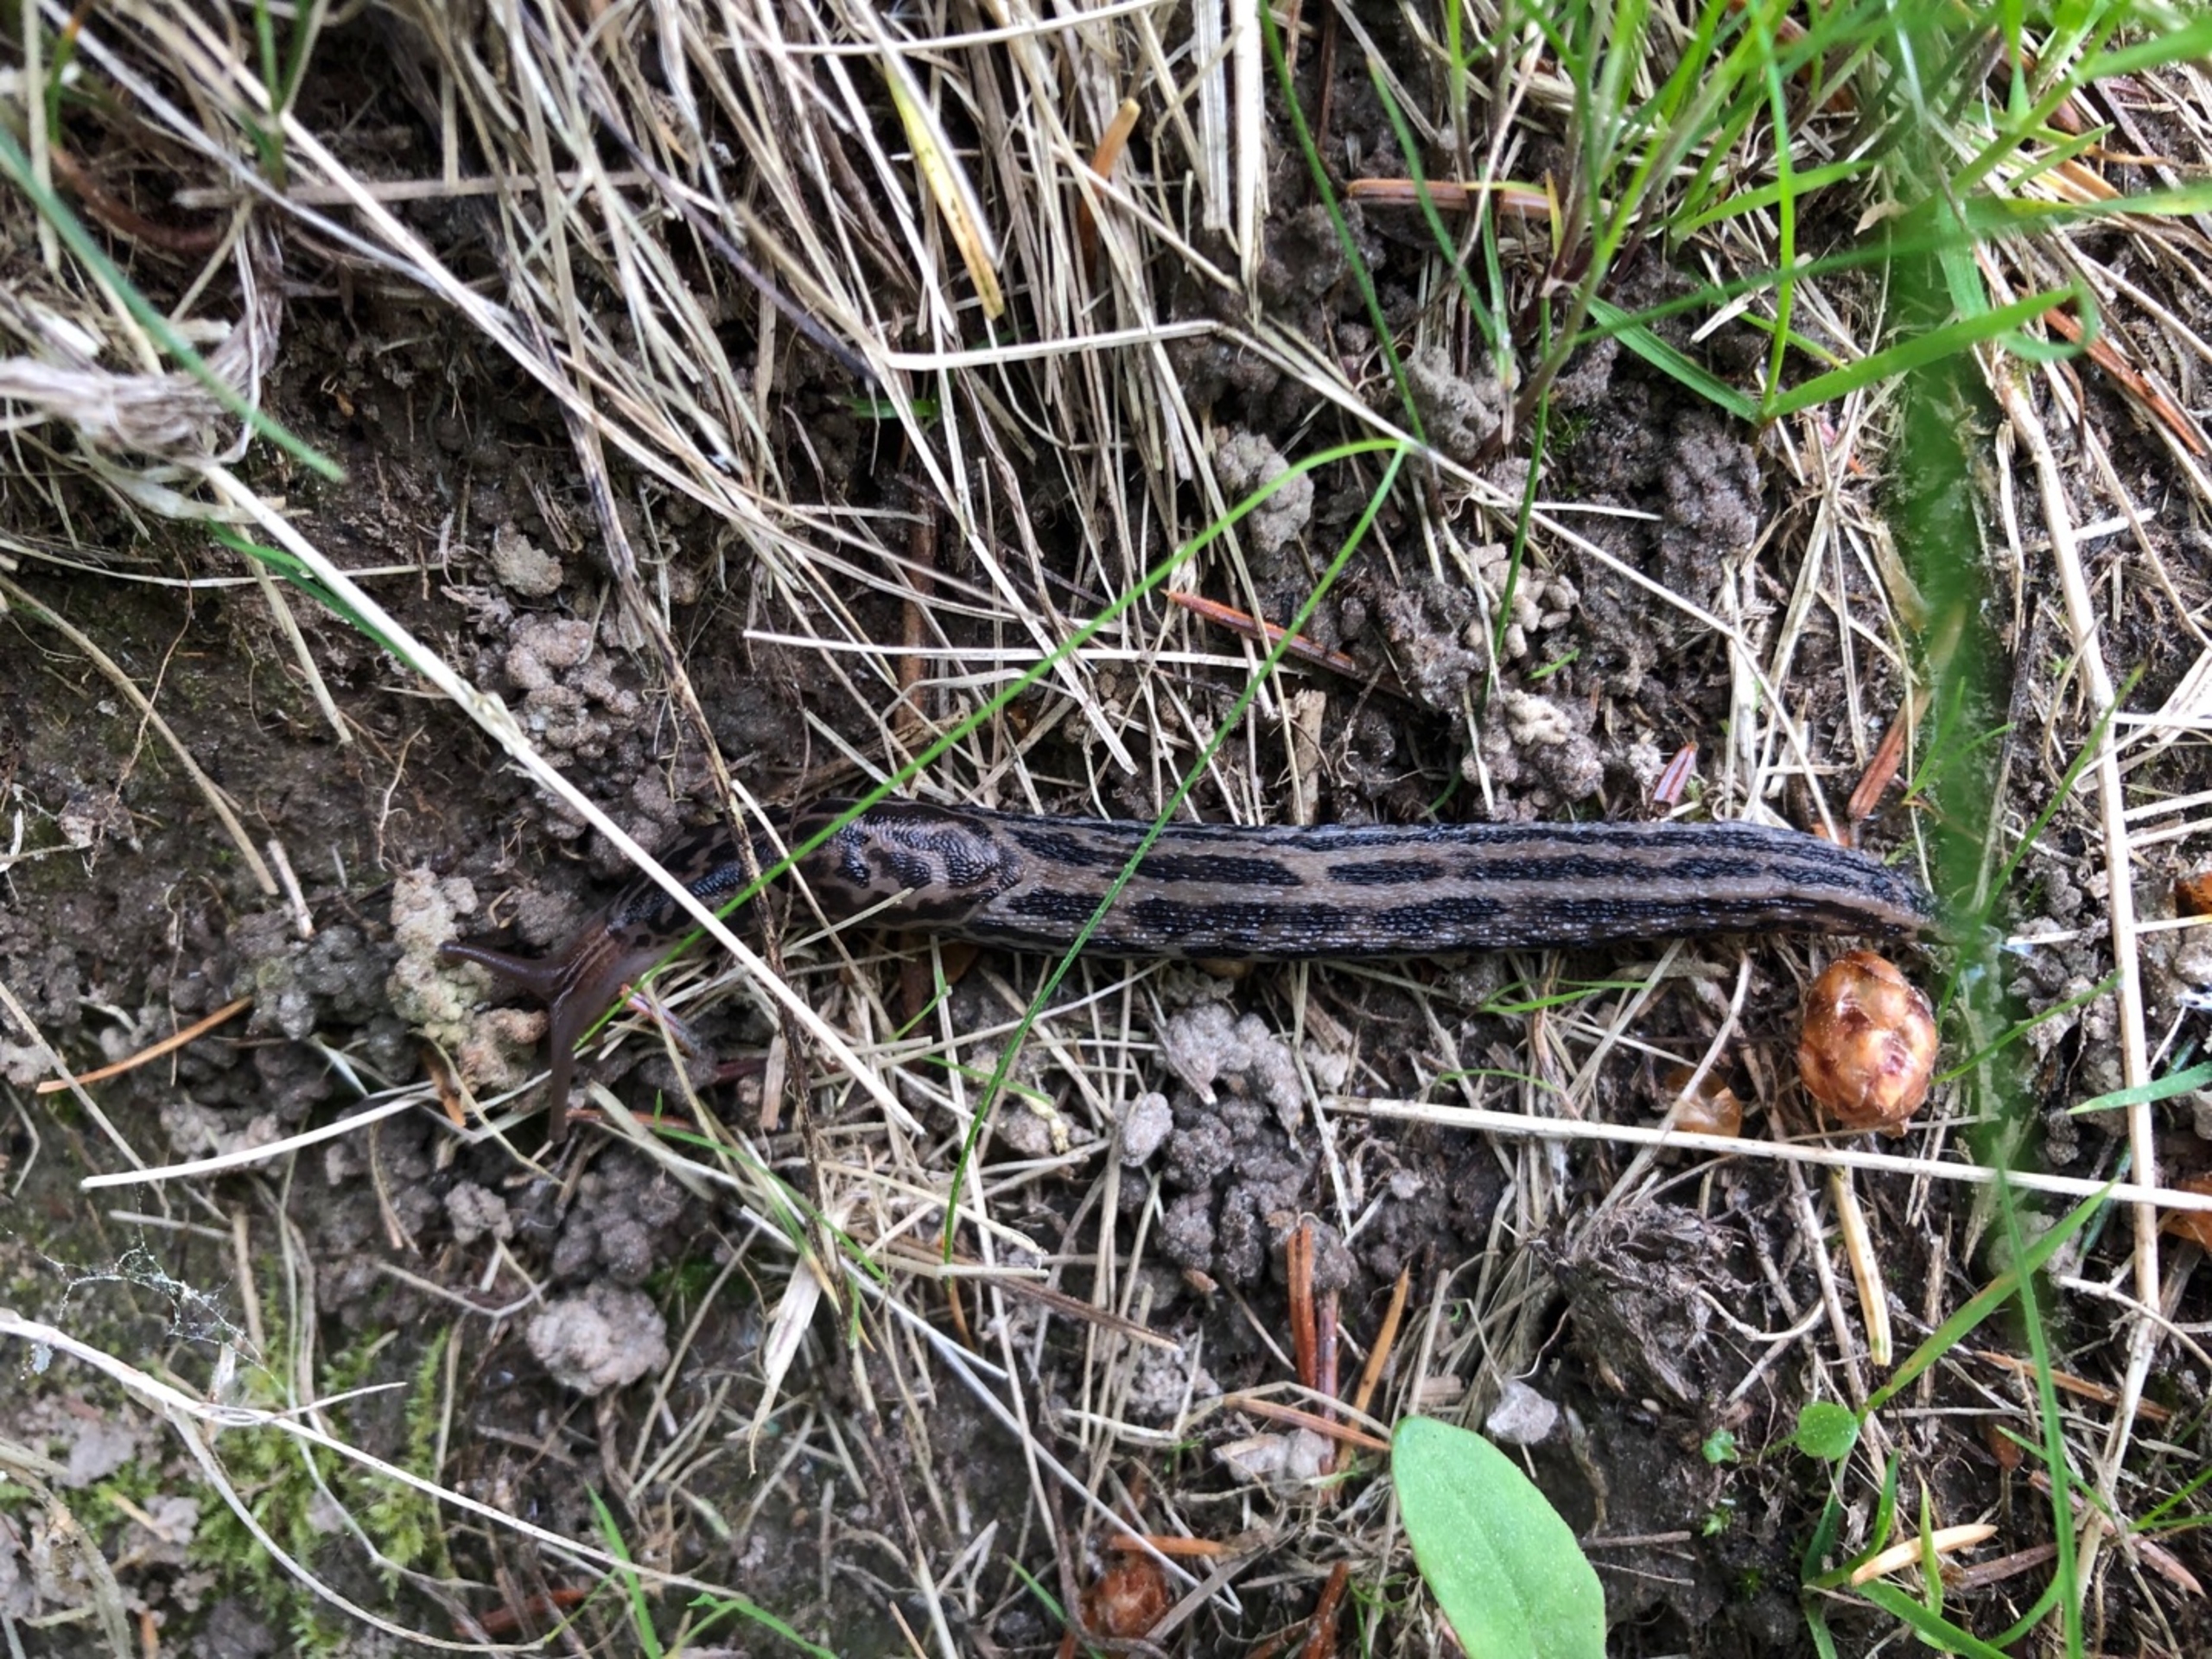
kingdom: Animalia
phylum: Mollusca
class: Gastropoda
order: Stylommatophora
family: Limacidae
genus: Limax
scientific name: Limax maximus
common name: Pantersnegl
